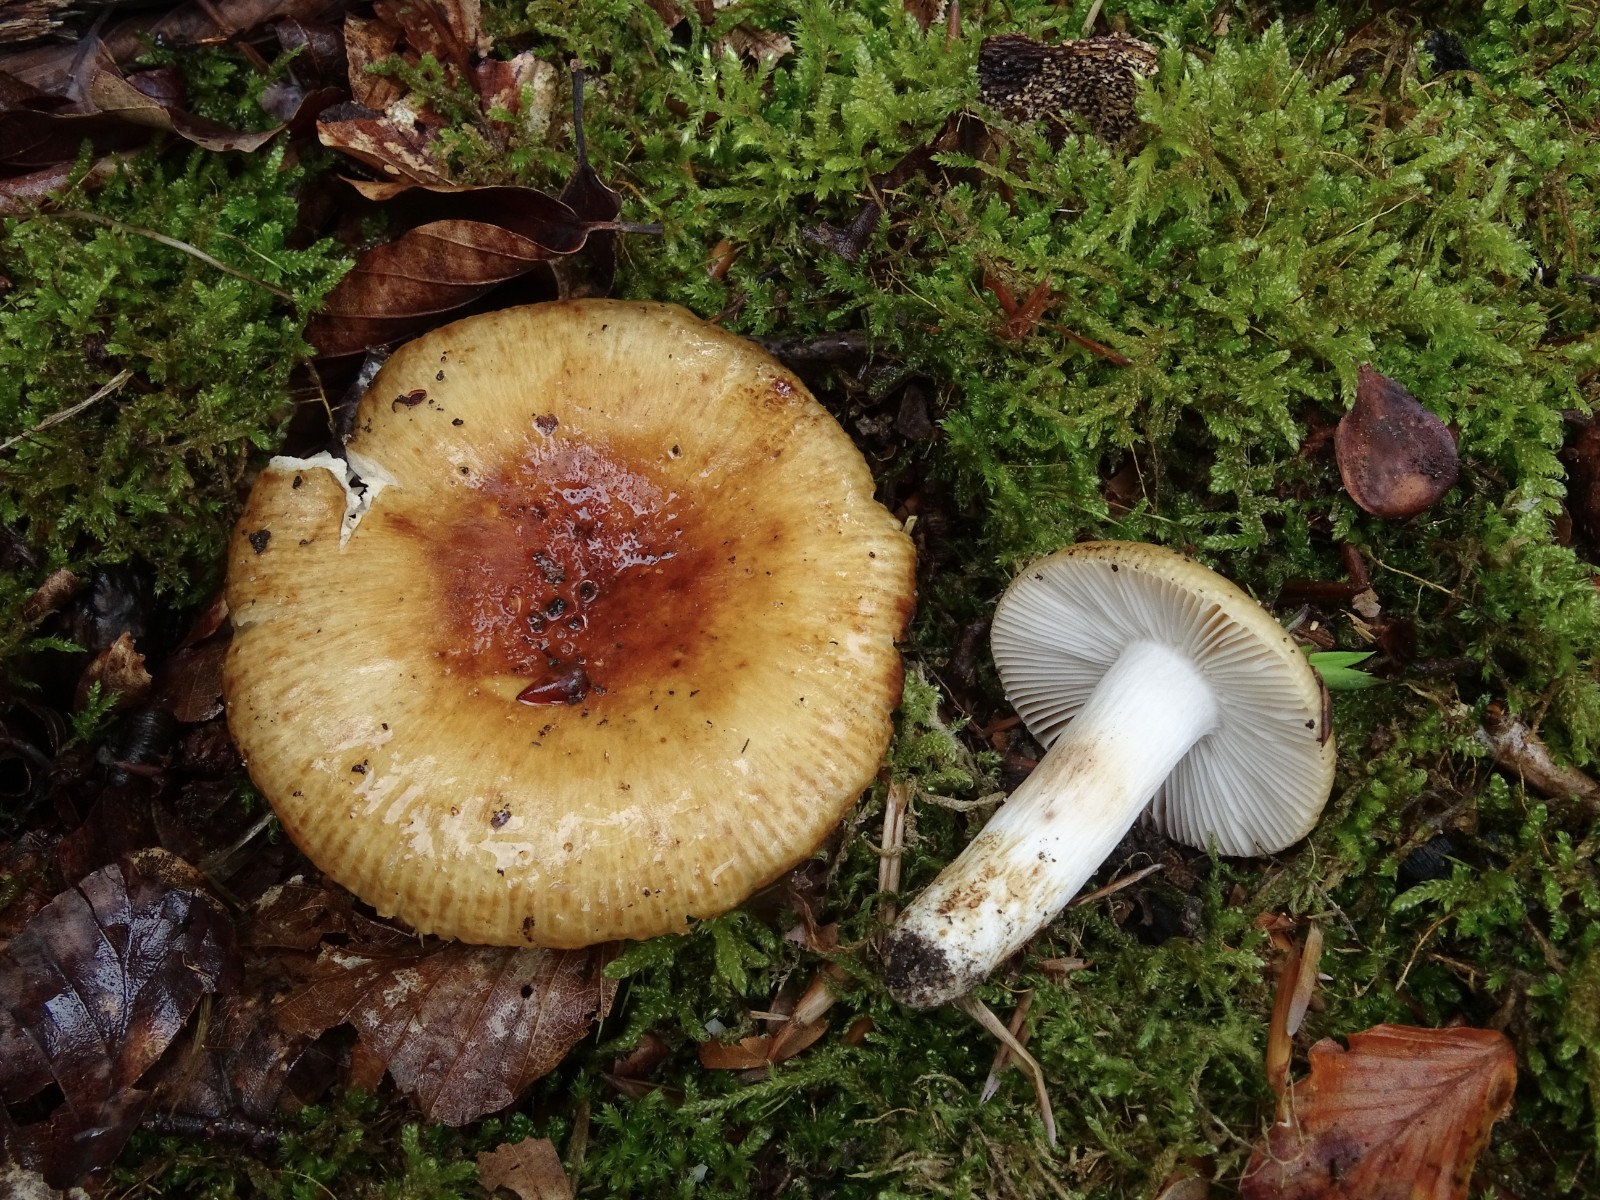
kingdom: Fungi
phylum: Basidiomycota
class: Agaricomycetes
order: Russulales
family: Russulaceae
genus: Russula
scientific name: Russula grata
